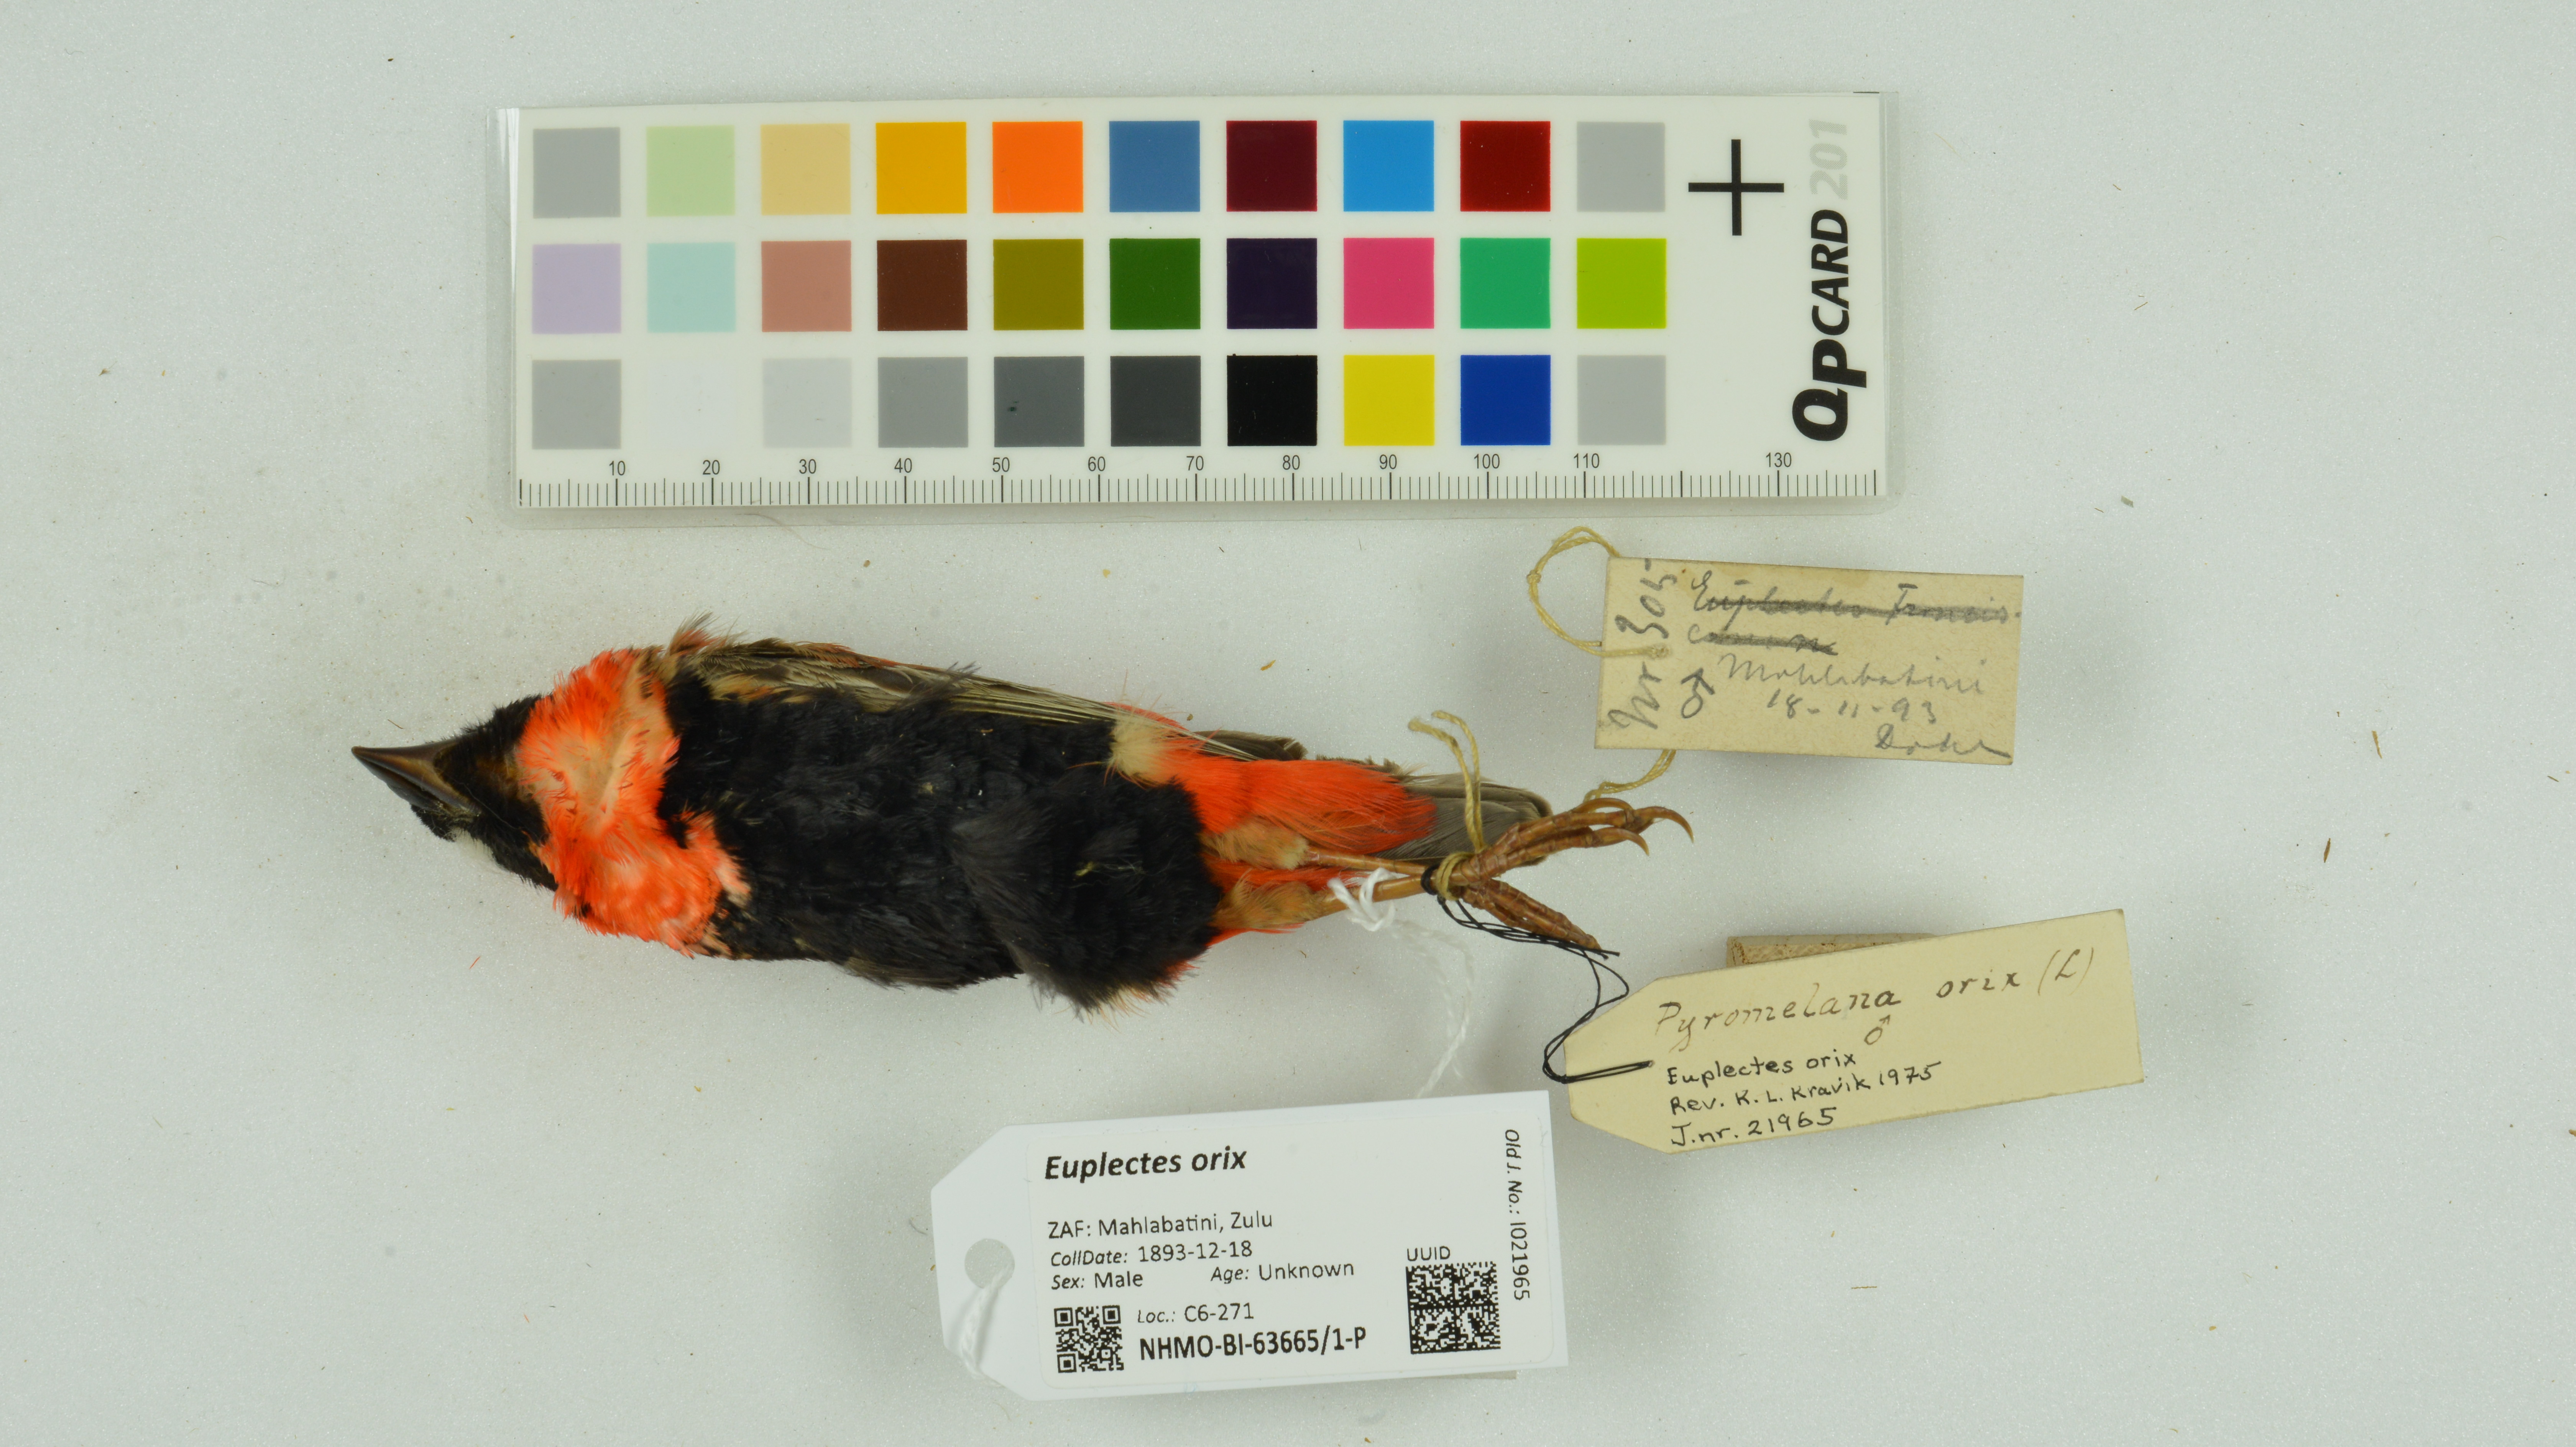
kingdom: Animalia
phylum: Chordata
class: Aves
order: Passeriformes
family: Ploceidae
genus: Euplectes
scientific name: Euplectes orix
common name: Southern red bishop
